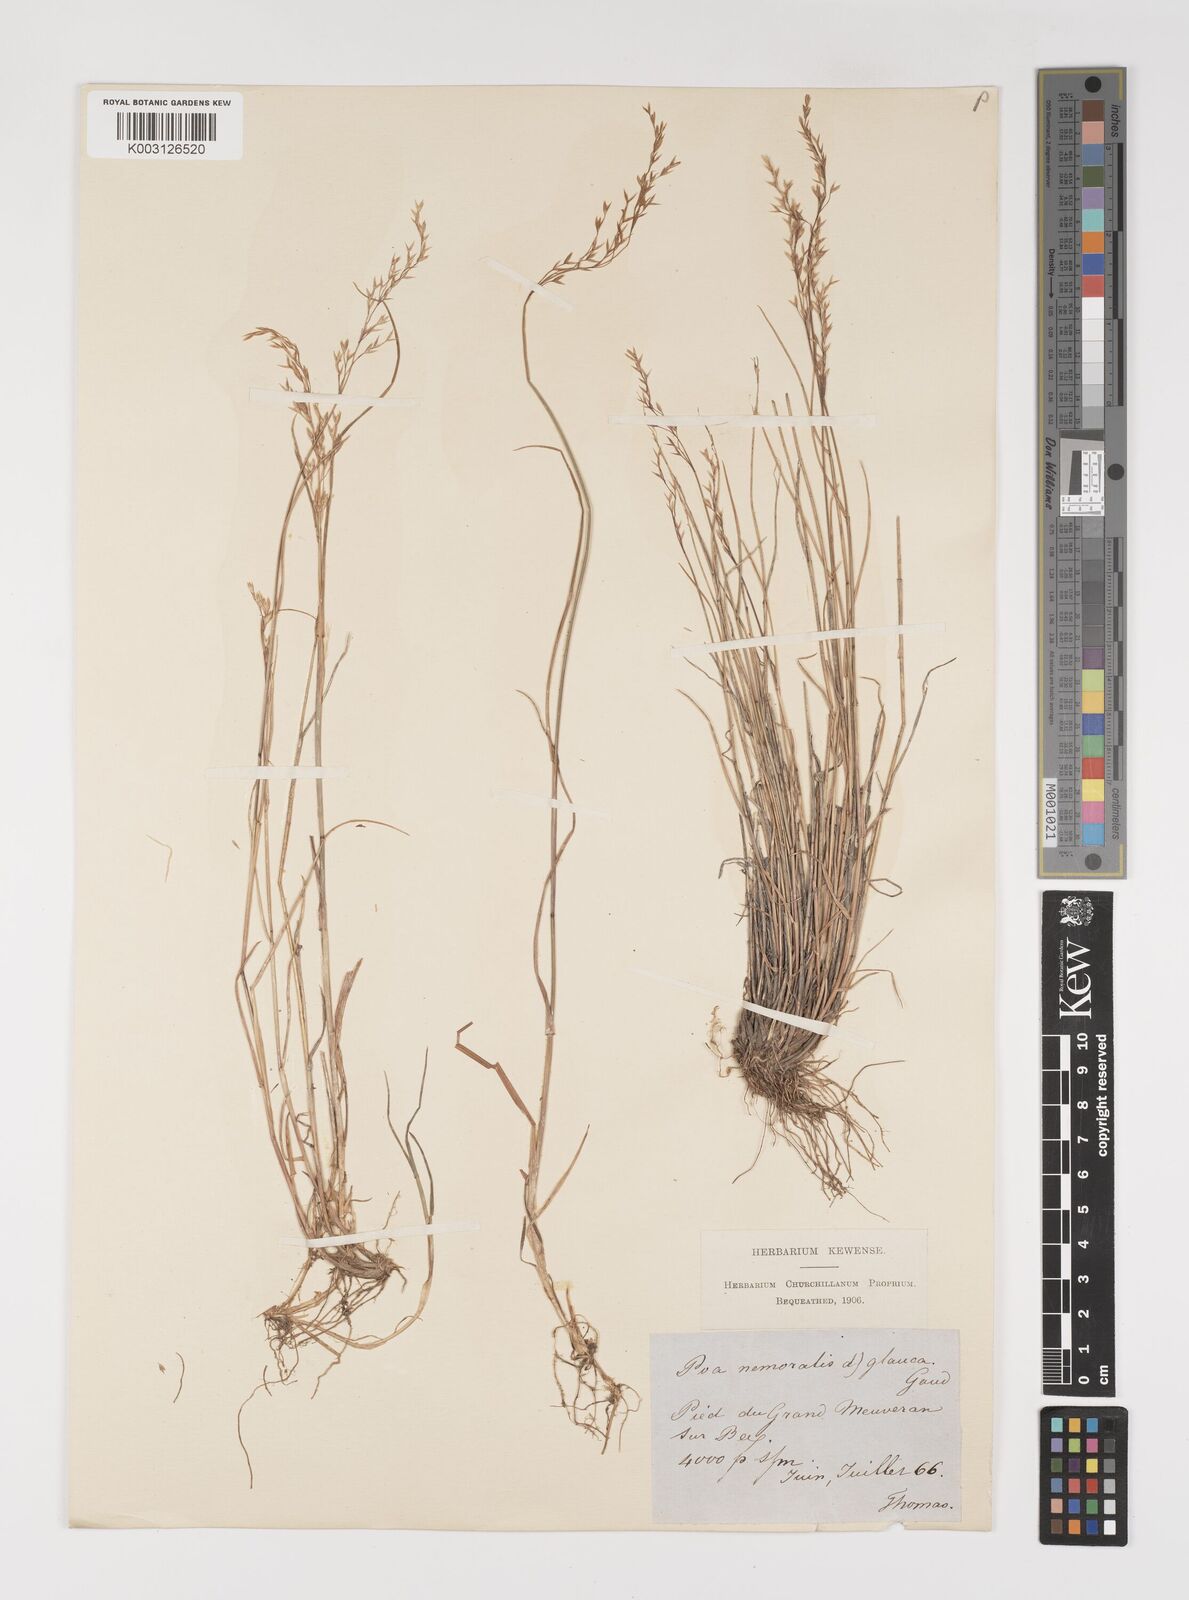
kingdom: Plantae
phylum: Tracheophyta
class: Liliopsida
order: Poales
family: Poaceae
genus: Poa
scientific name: Poa nemoralis
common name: Wood bluegrass
